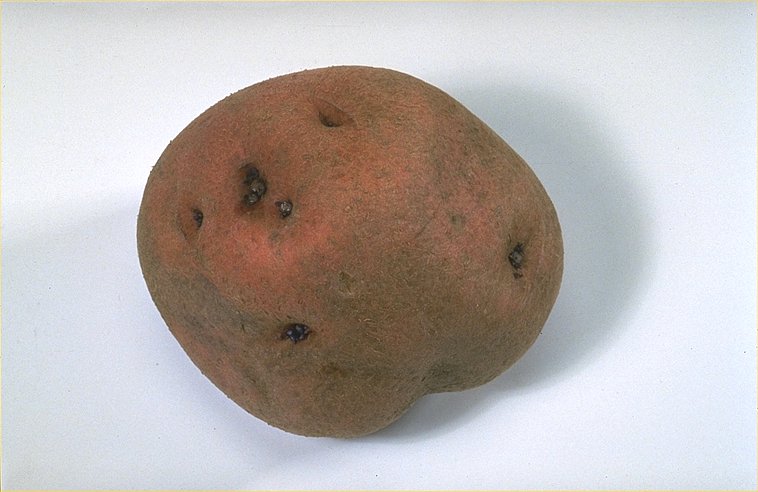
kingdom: Plantae
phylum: Tracheophyta
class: Magnoliopsida
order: Solanales
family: Solanaceae
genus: Solanum
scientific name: Solanum tuberosum
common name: Potato
